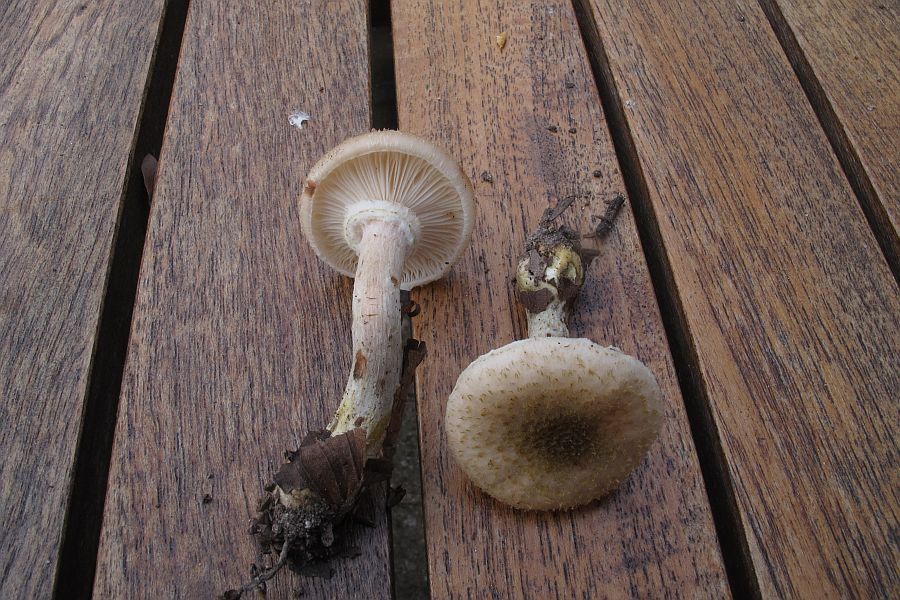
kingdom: Fungi
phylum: Basidiomycota
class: Agaricomycetes
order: Agaricales
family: Physalacriaceae
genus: Armillaria
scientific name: Armillaria lutea
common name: køllestokket honningsvamp
